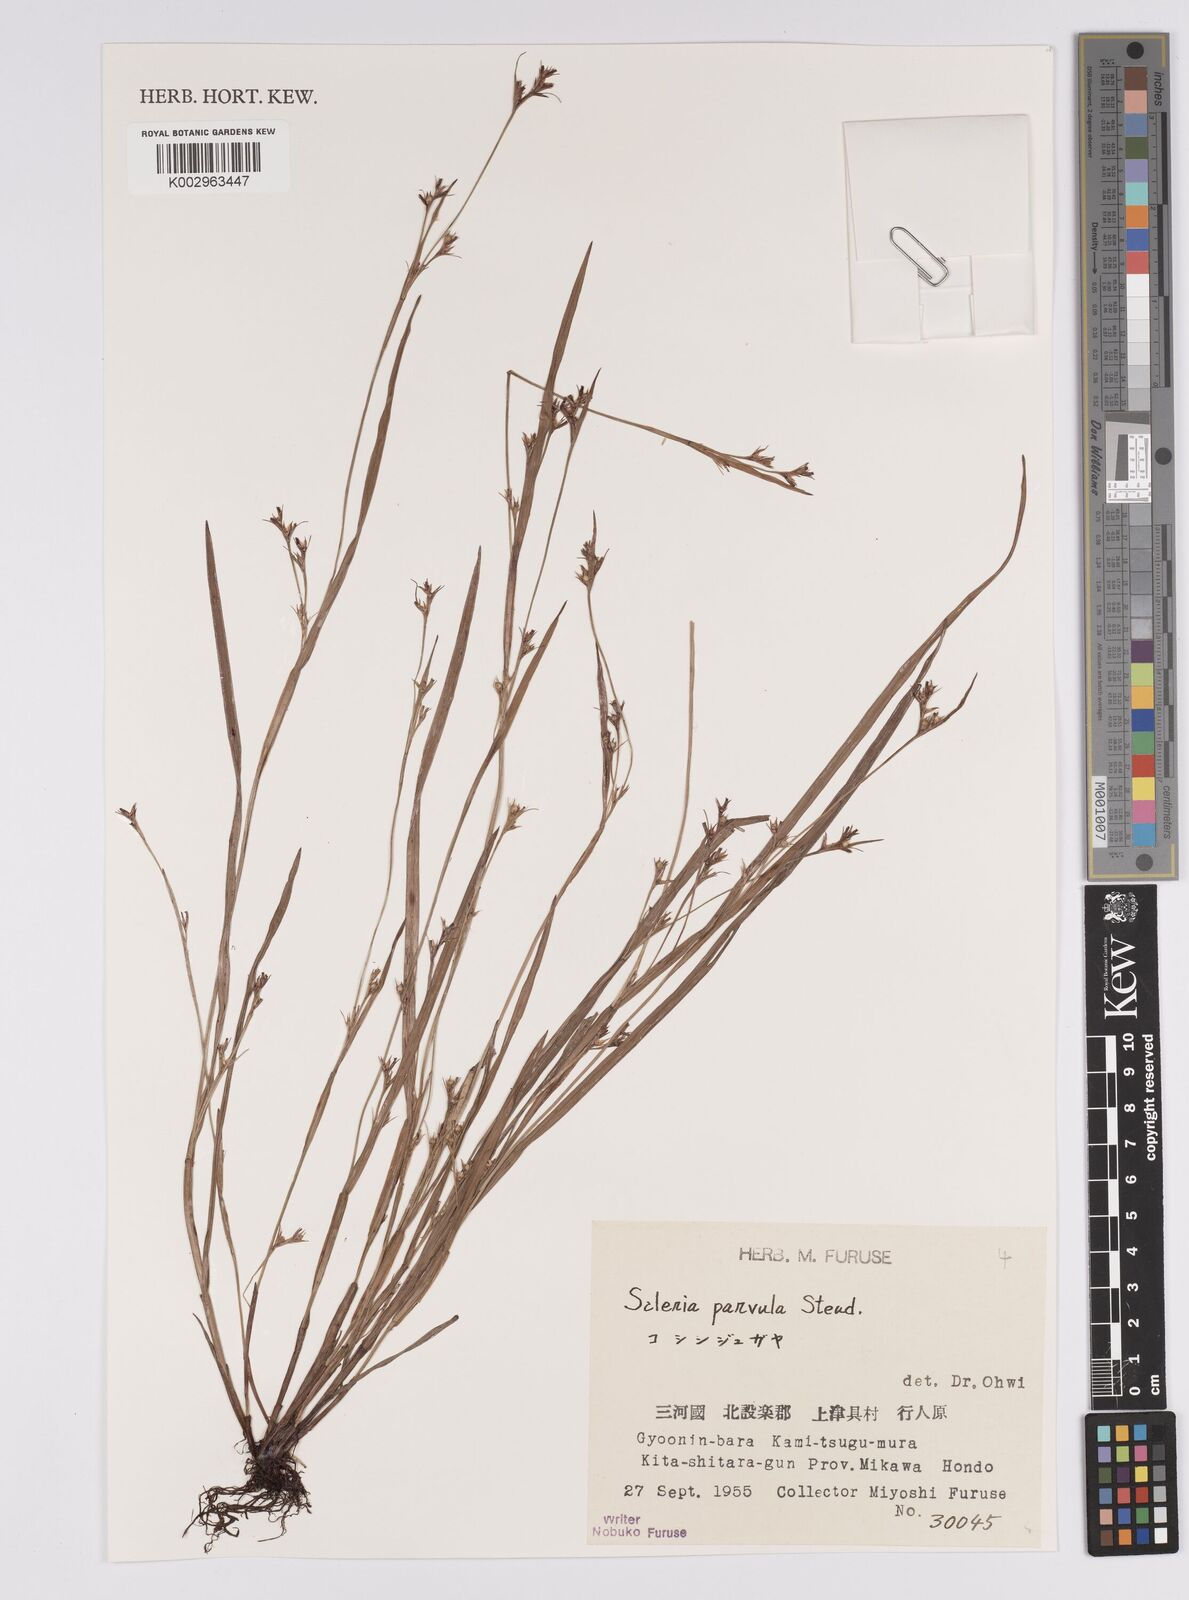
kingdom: Plantae
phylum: Tracheophyta
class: Liliopsida
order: Poales
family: Cyperaceae
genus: Scleria
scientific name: Scleria parvula
